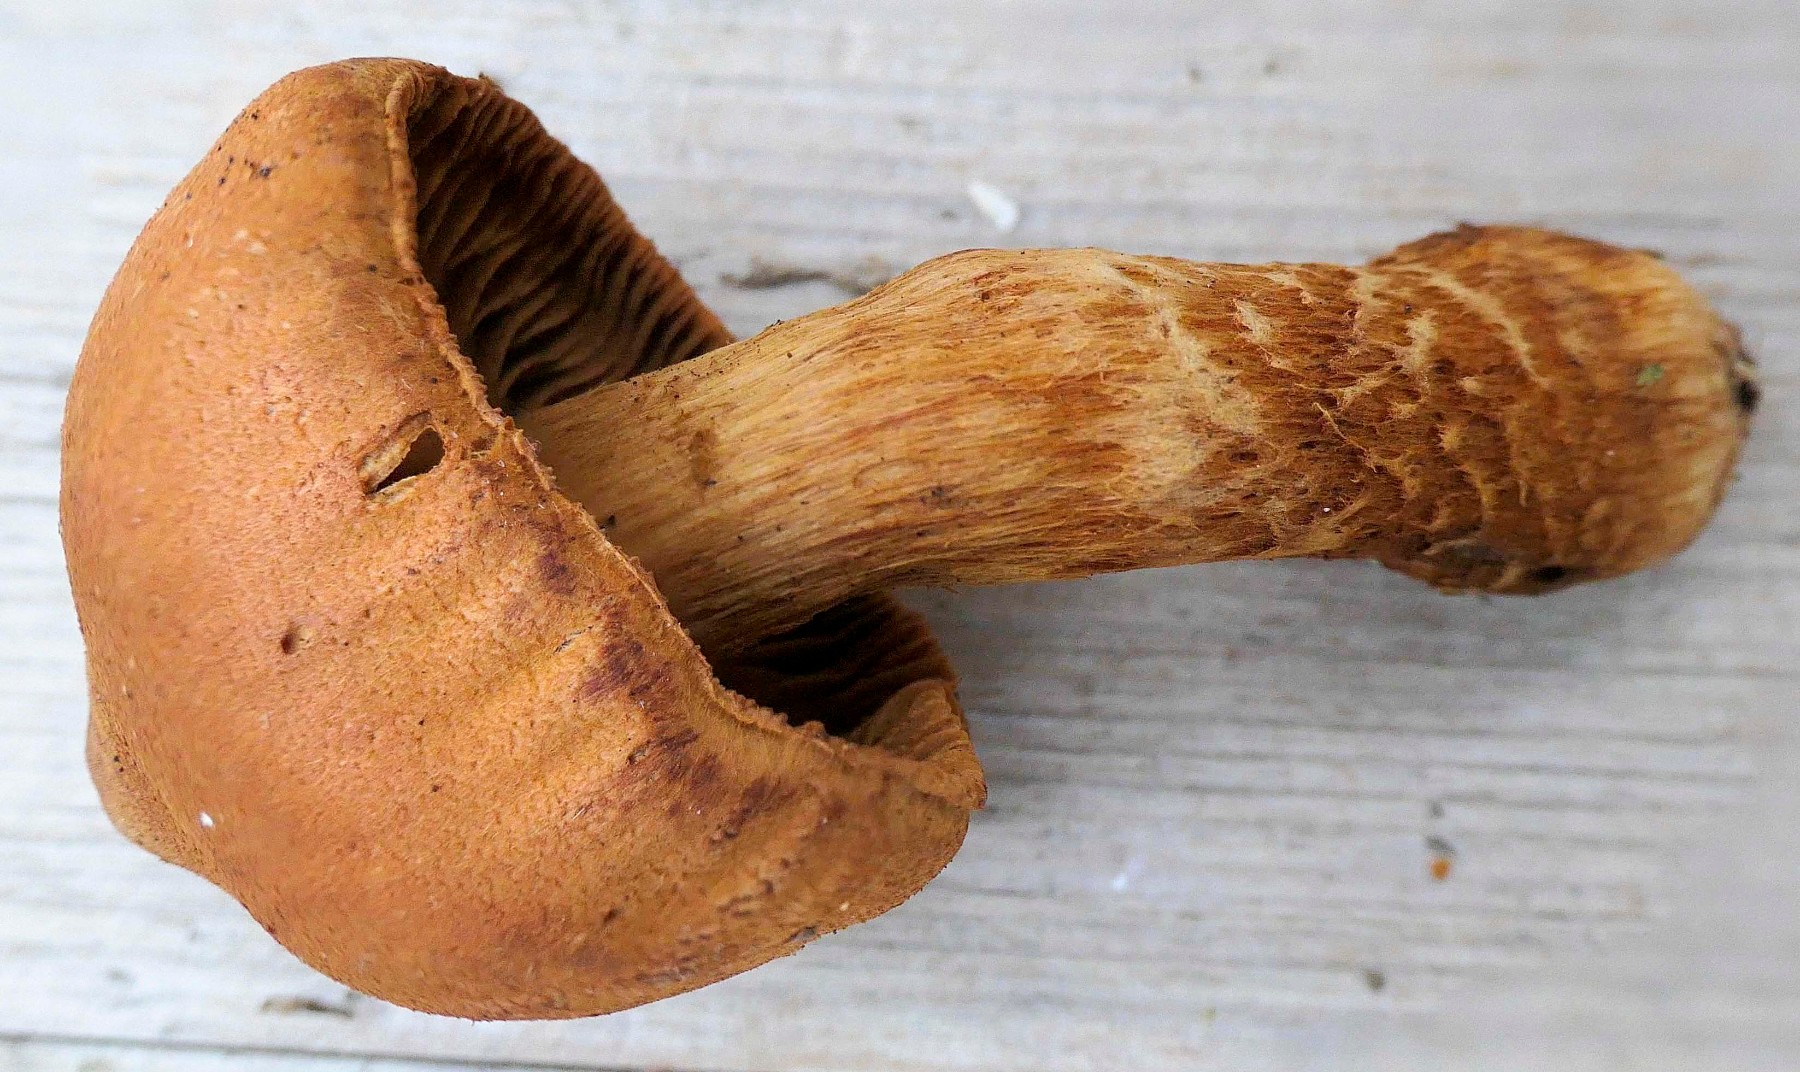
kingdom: Fungi
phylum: Basidiomycota
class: Agaricomycetes
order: Agaricales
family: Cortinariaceae
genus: Cortinarius
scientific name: Cortinarius rubellus
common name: puklet gift-slørhat
